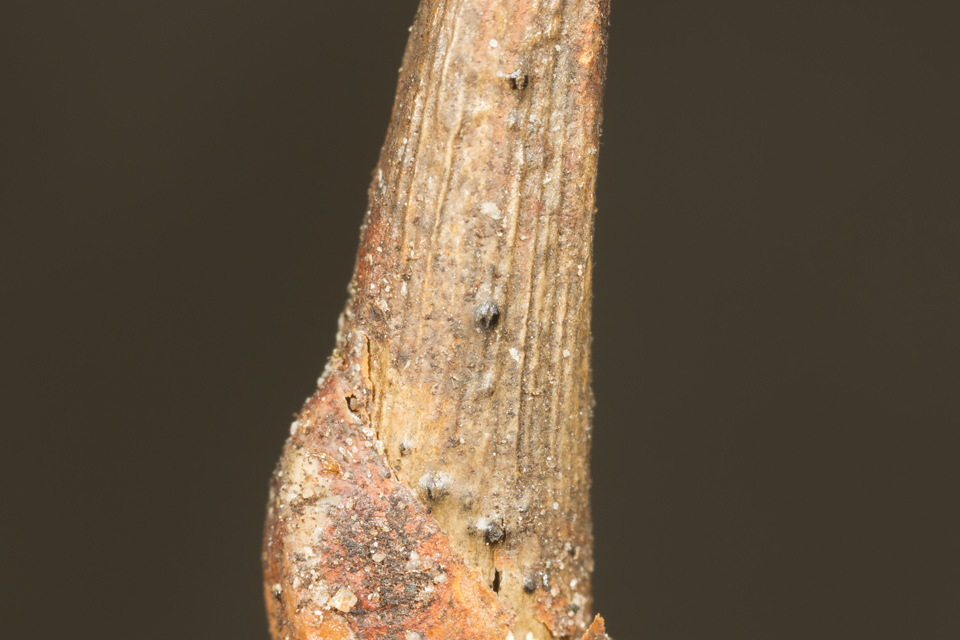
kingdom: Fungi
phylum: Ascomycota
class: Sordariomycetes
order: Diaporthales
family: Diaporthaceae
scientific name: Diaporthaceae
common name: kulknippefamilien
